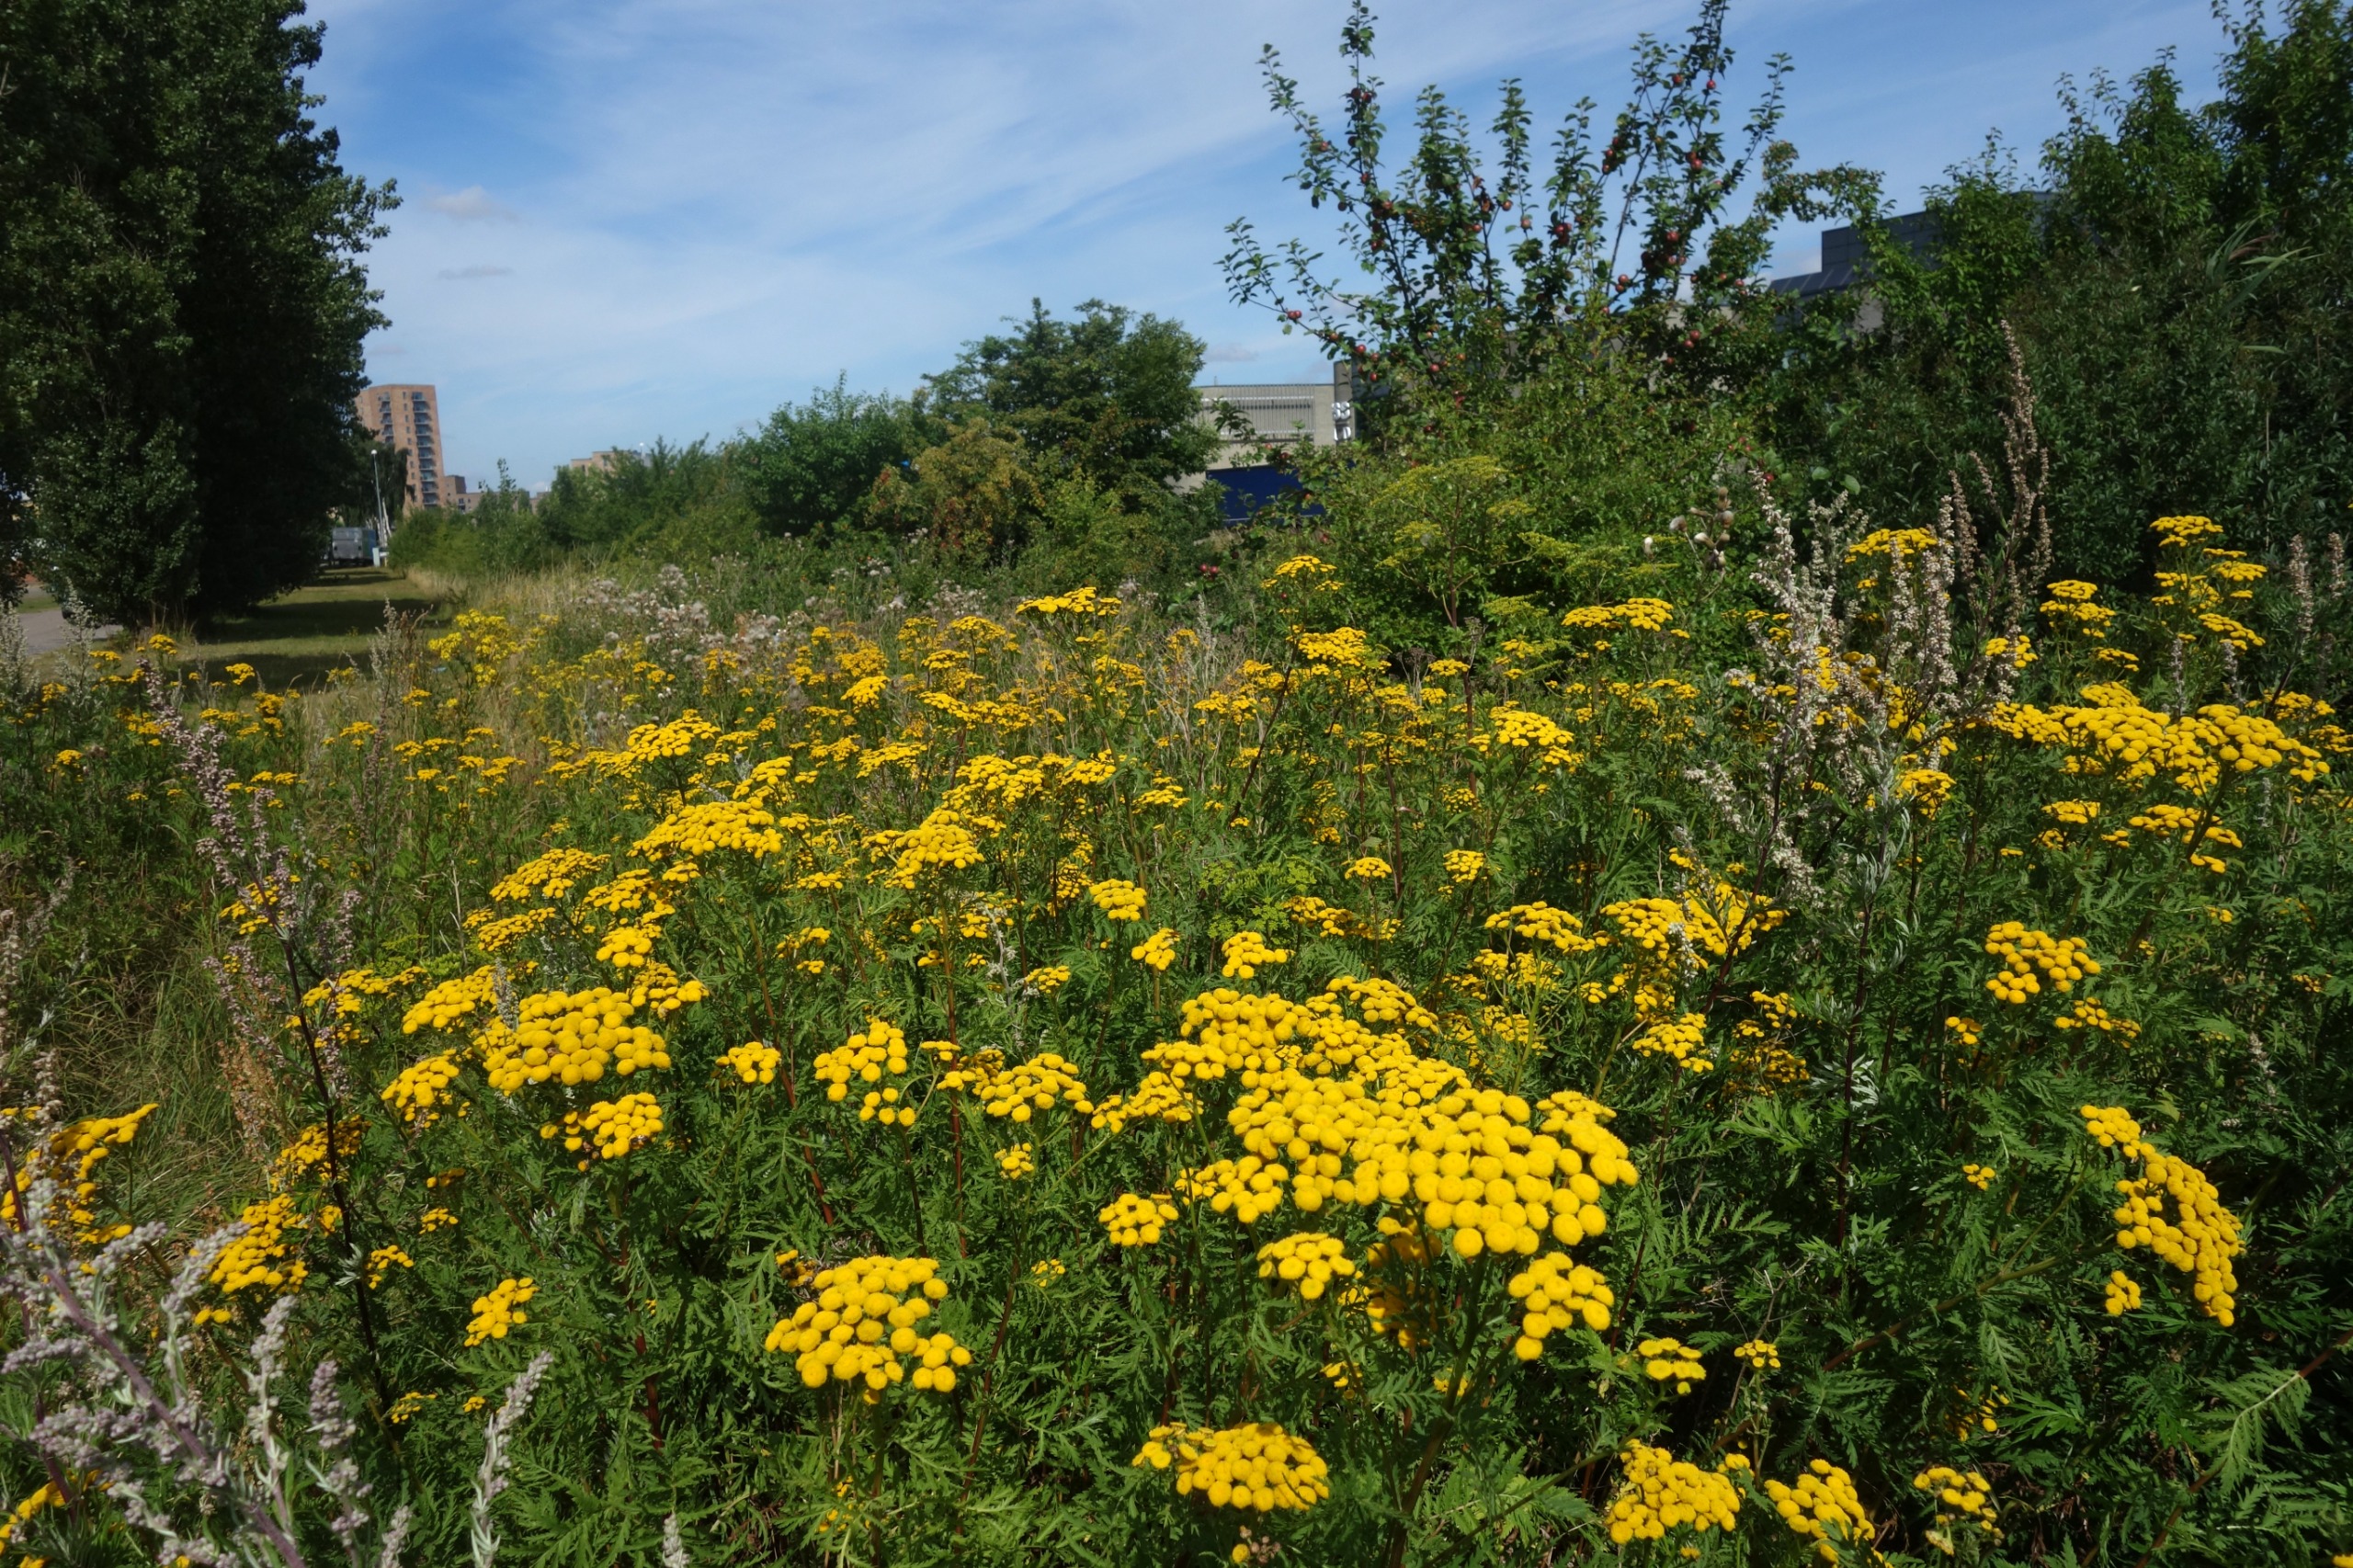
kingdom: Plantae
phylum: Tracheophyta
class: Magnoliopsida
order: Asterales
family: Asteraceae
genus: Tanacetum
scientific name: Tanacetum vulgare
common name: Rejnfan
